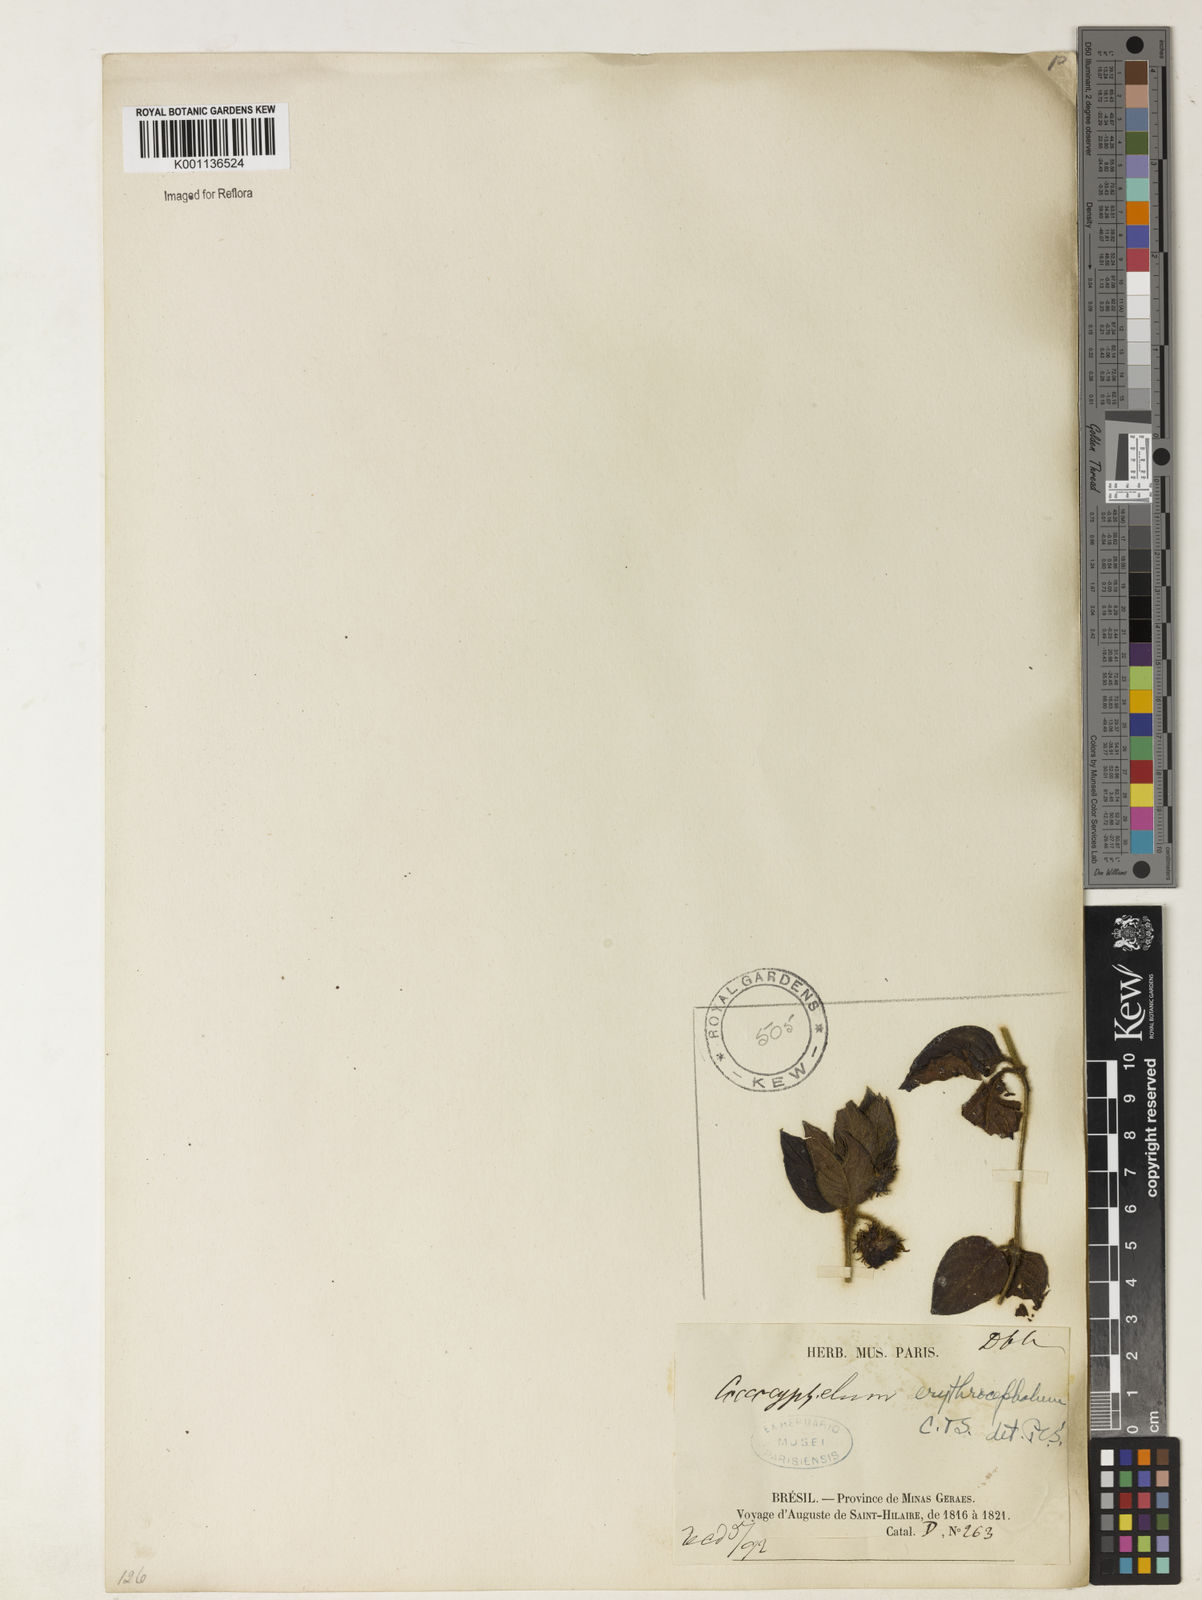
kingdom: Plantae
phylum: Tracheophyta
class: Magnoliopsida
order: Gentianales
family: Rubiaceae
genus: Coccocypselum
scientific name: Coccocypselum erythrocephalum
